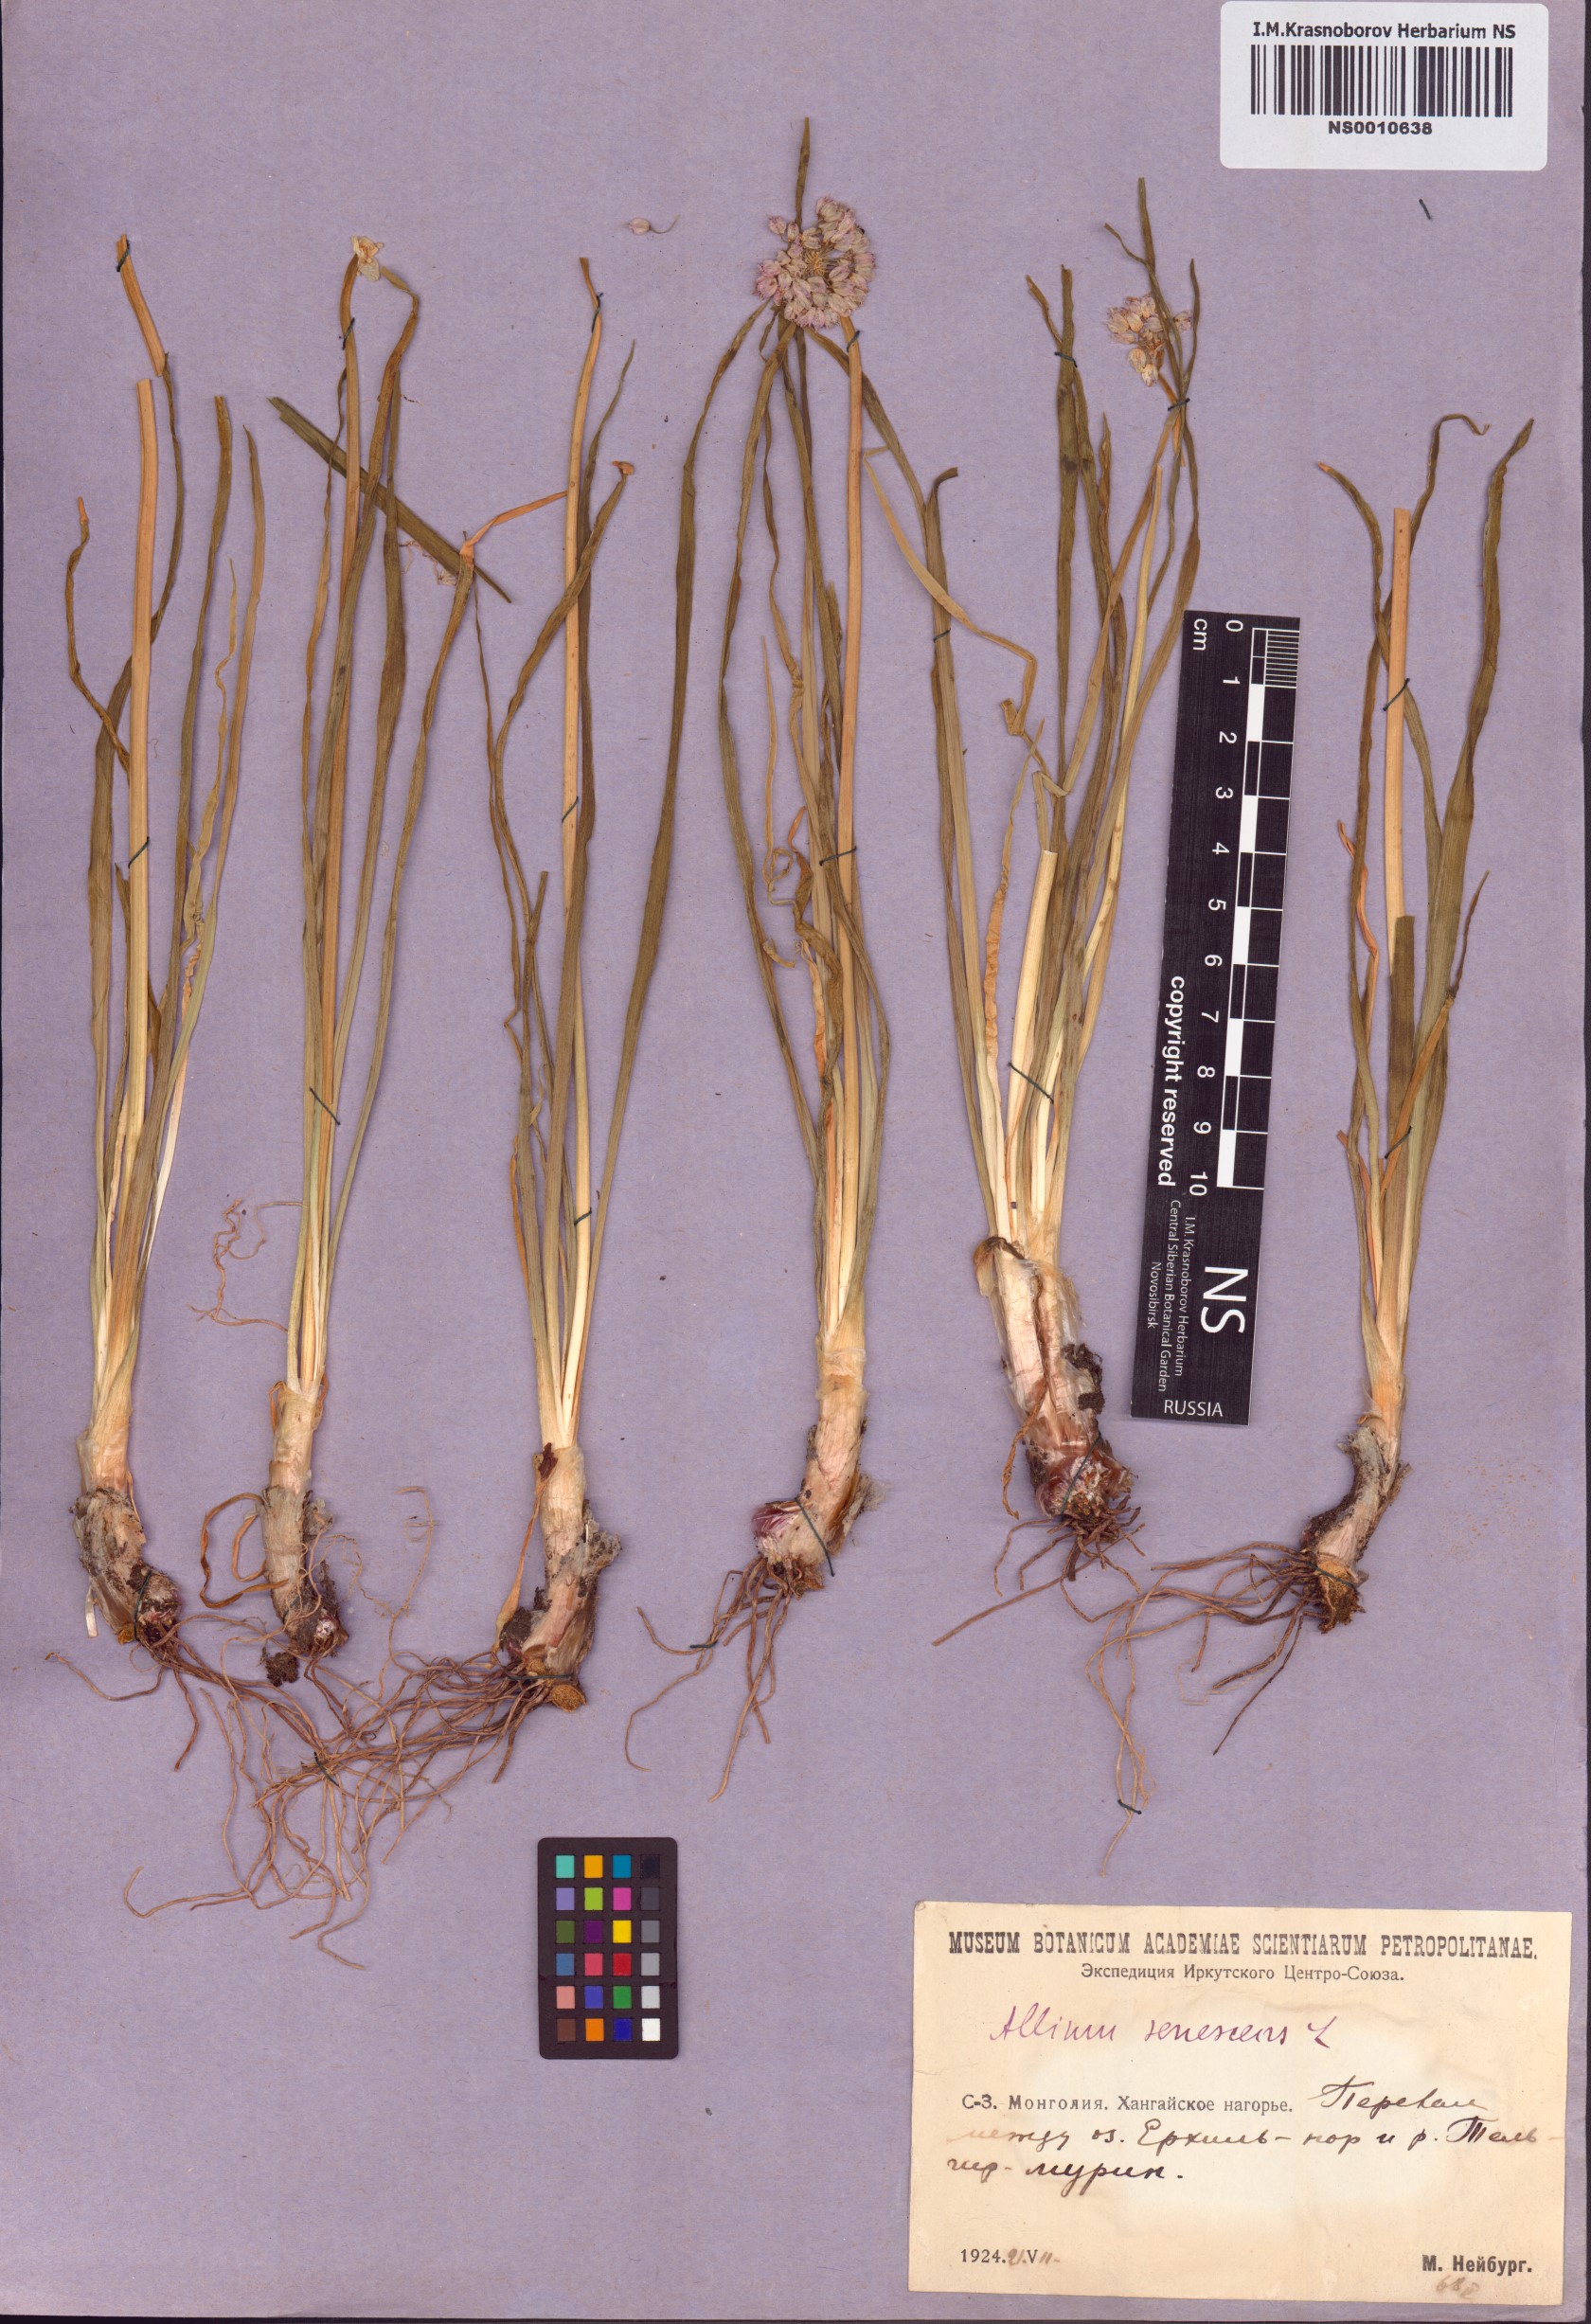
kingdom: Plantae
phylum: Tracheophyta
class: Liliopsida
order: Asparagales
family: Amaryllidaceae
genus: Allium
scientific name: Allium senescens
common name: German garlic
